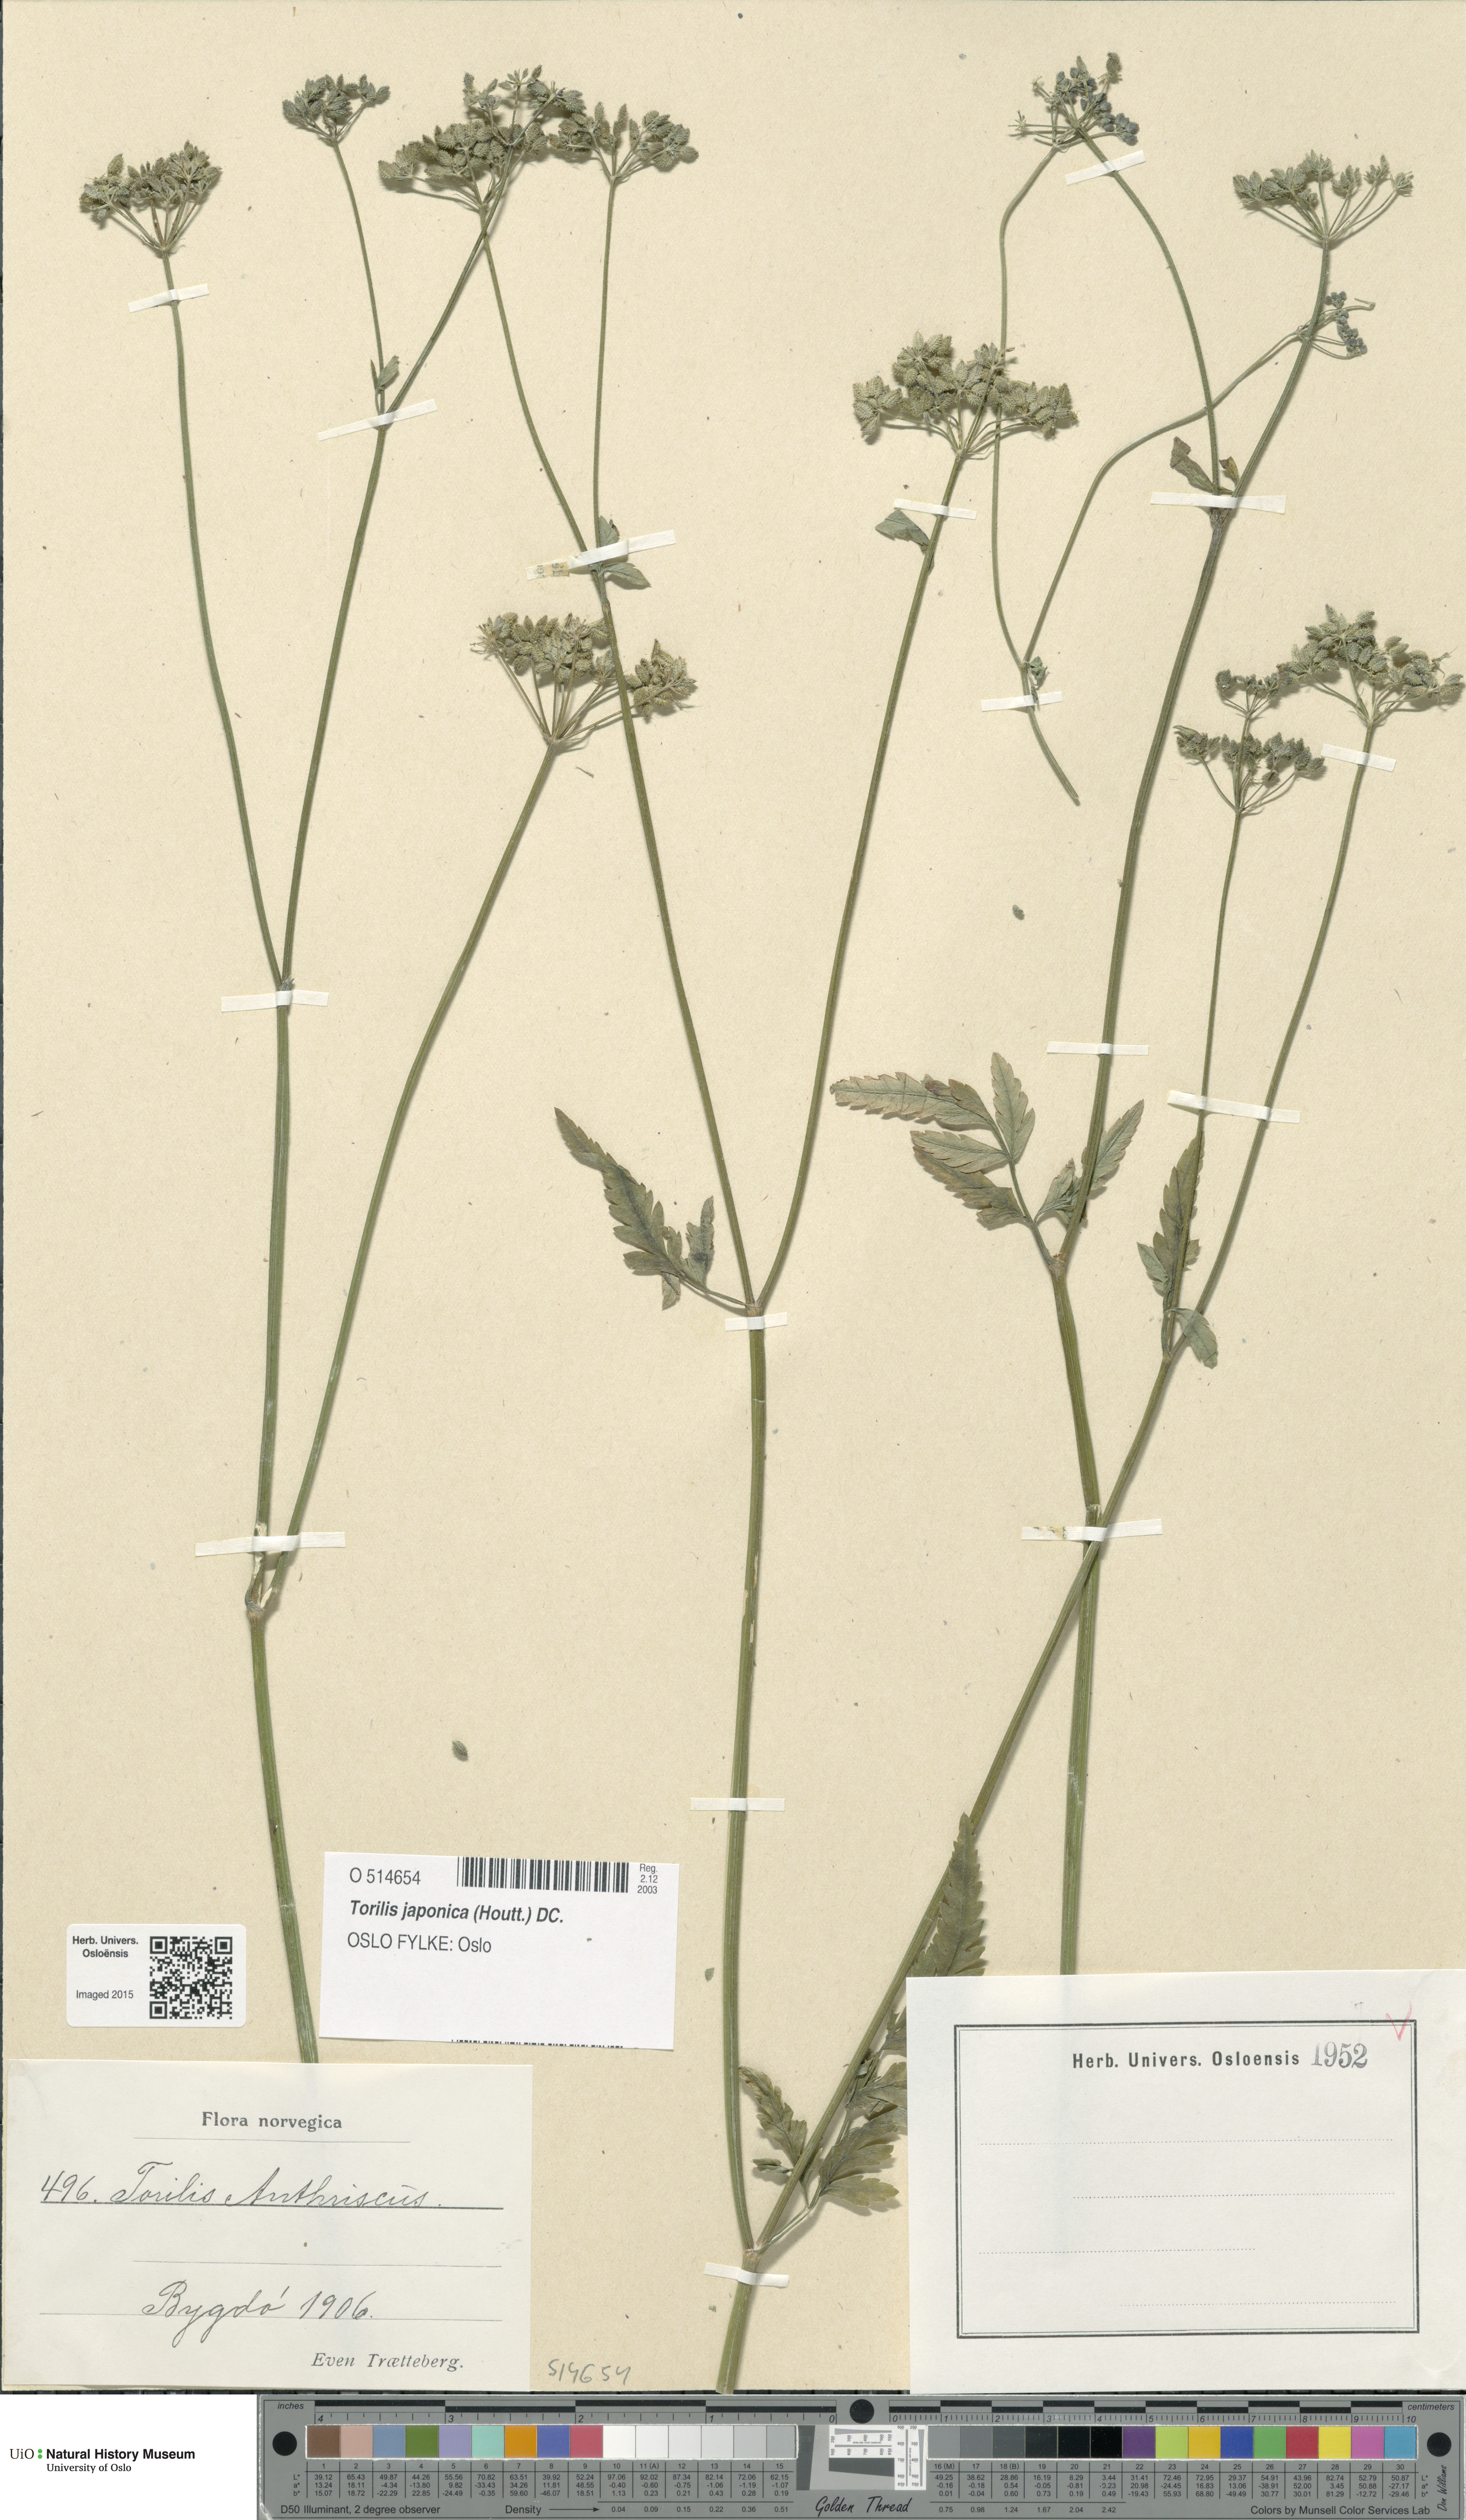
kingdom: Plantae
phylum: Tracheophyta
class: Magnoliopsida
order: Apiales
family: Apiaceae
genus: Torilis
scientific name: Torilis japonica
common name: Upright hedge-parsley
